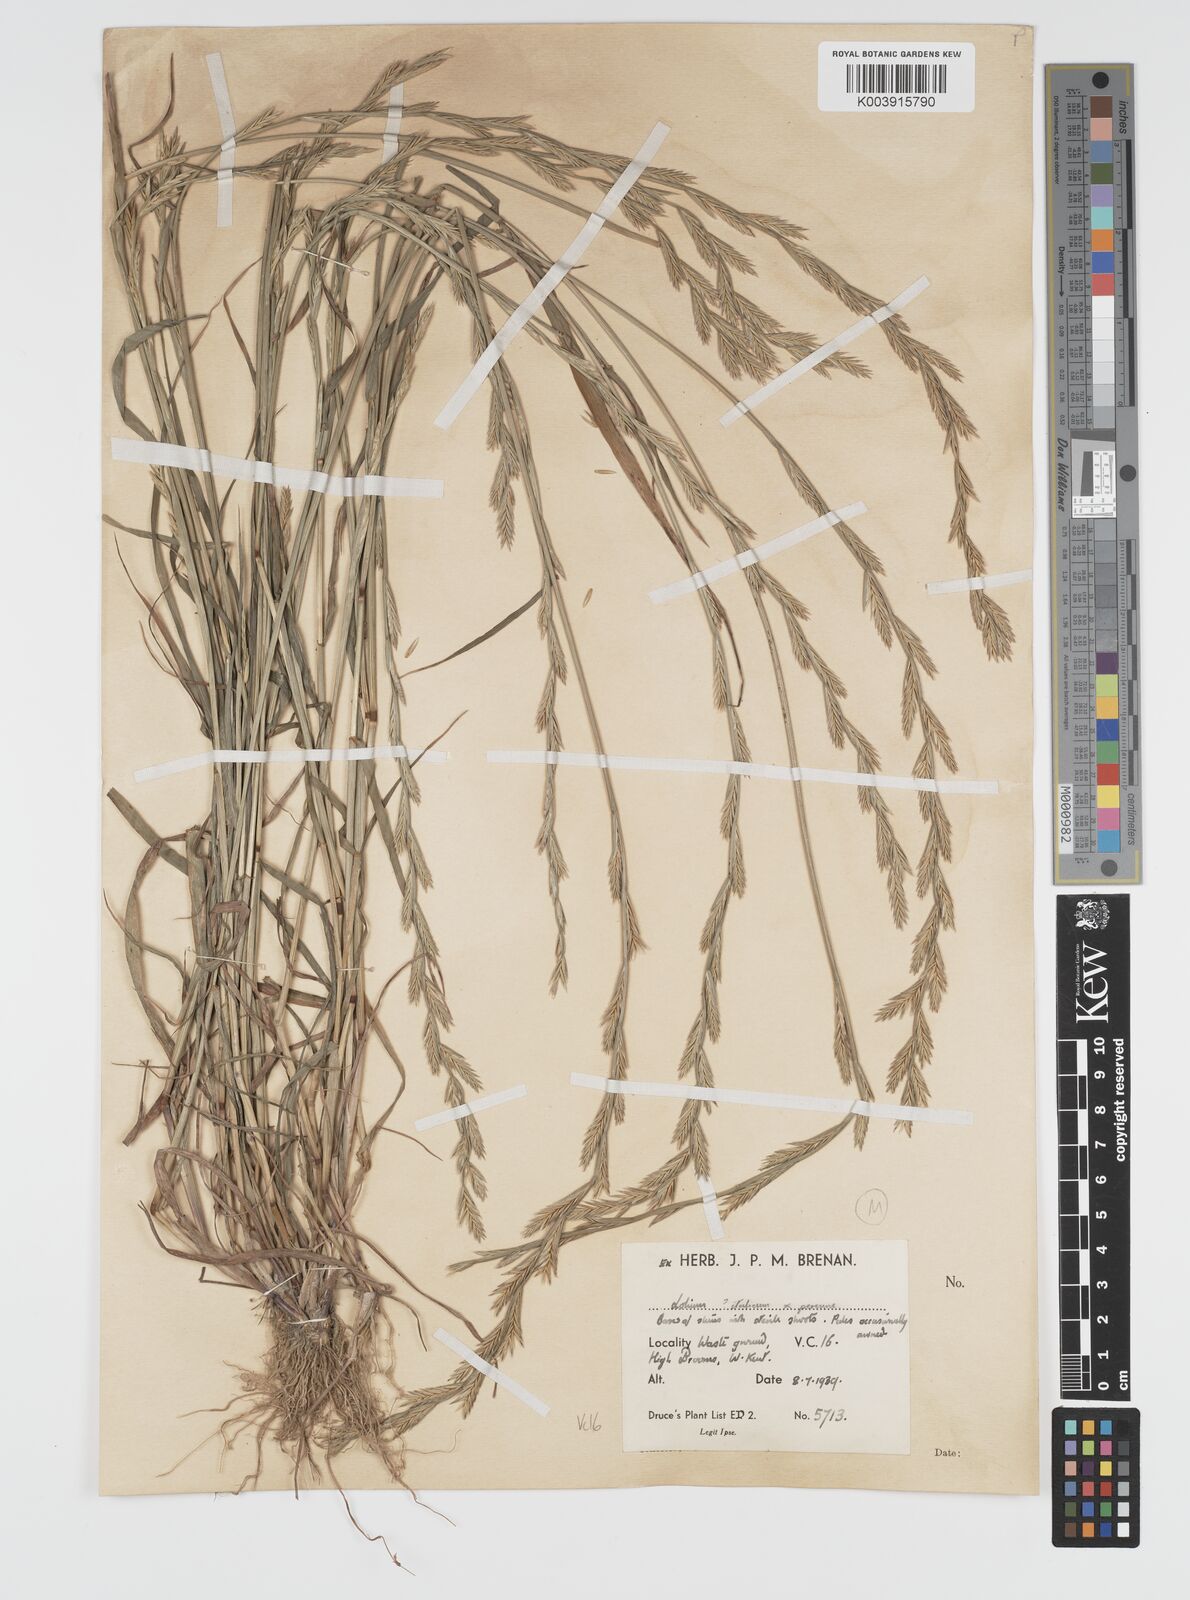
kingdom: Plantae
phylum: Tracheophyta
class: Liliopsida
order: Poales
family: Poaceae
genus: Lolium
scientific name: Lolium multiflorum
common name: Annual ryegrass
